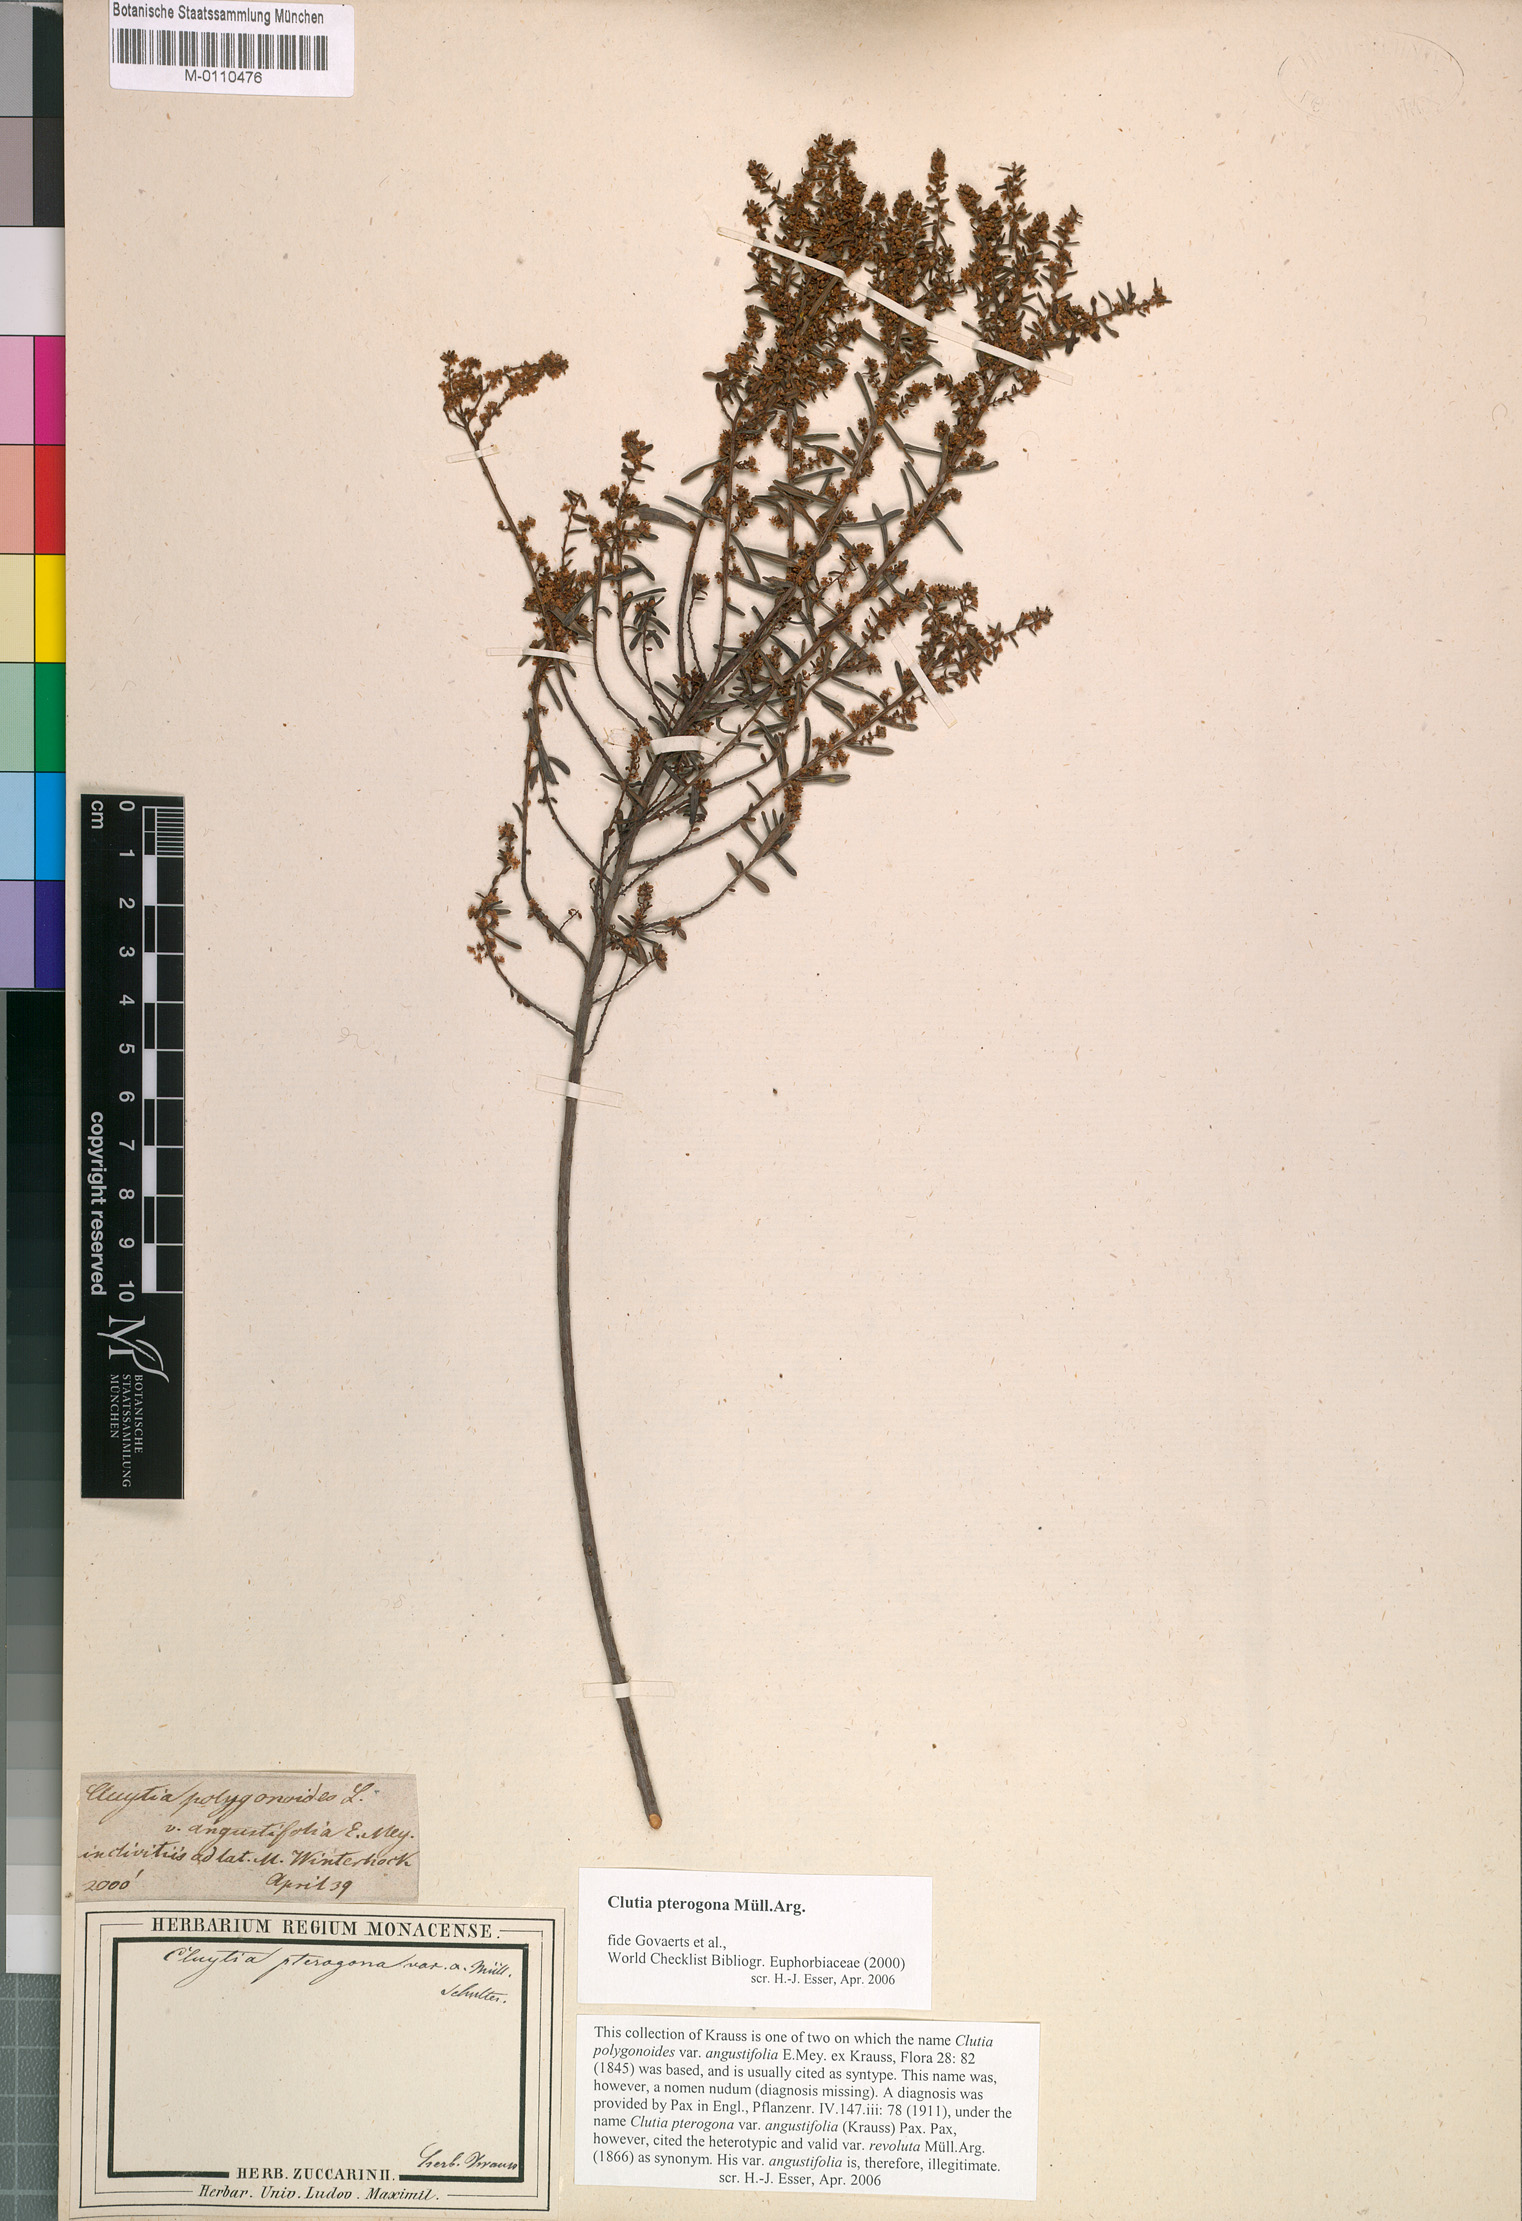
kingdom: Plantae
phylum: Tracheophyta
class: Magnoliopsida
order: Malpighiales
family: Peraceae
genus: Clutia
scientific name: Clutia pterogona
